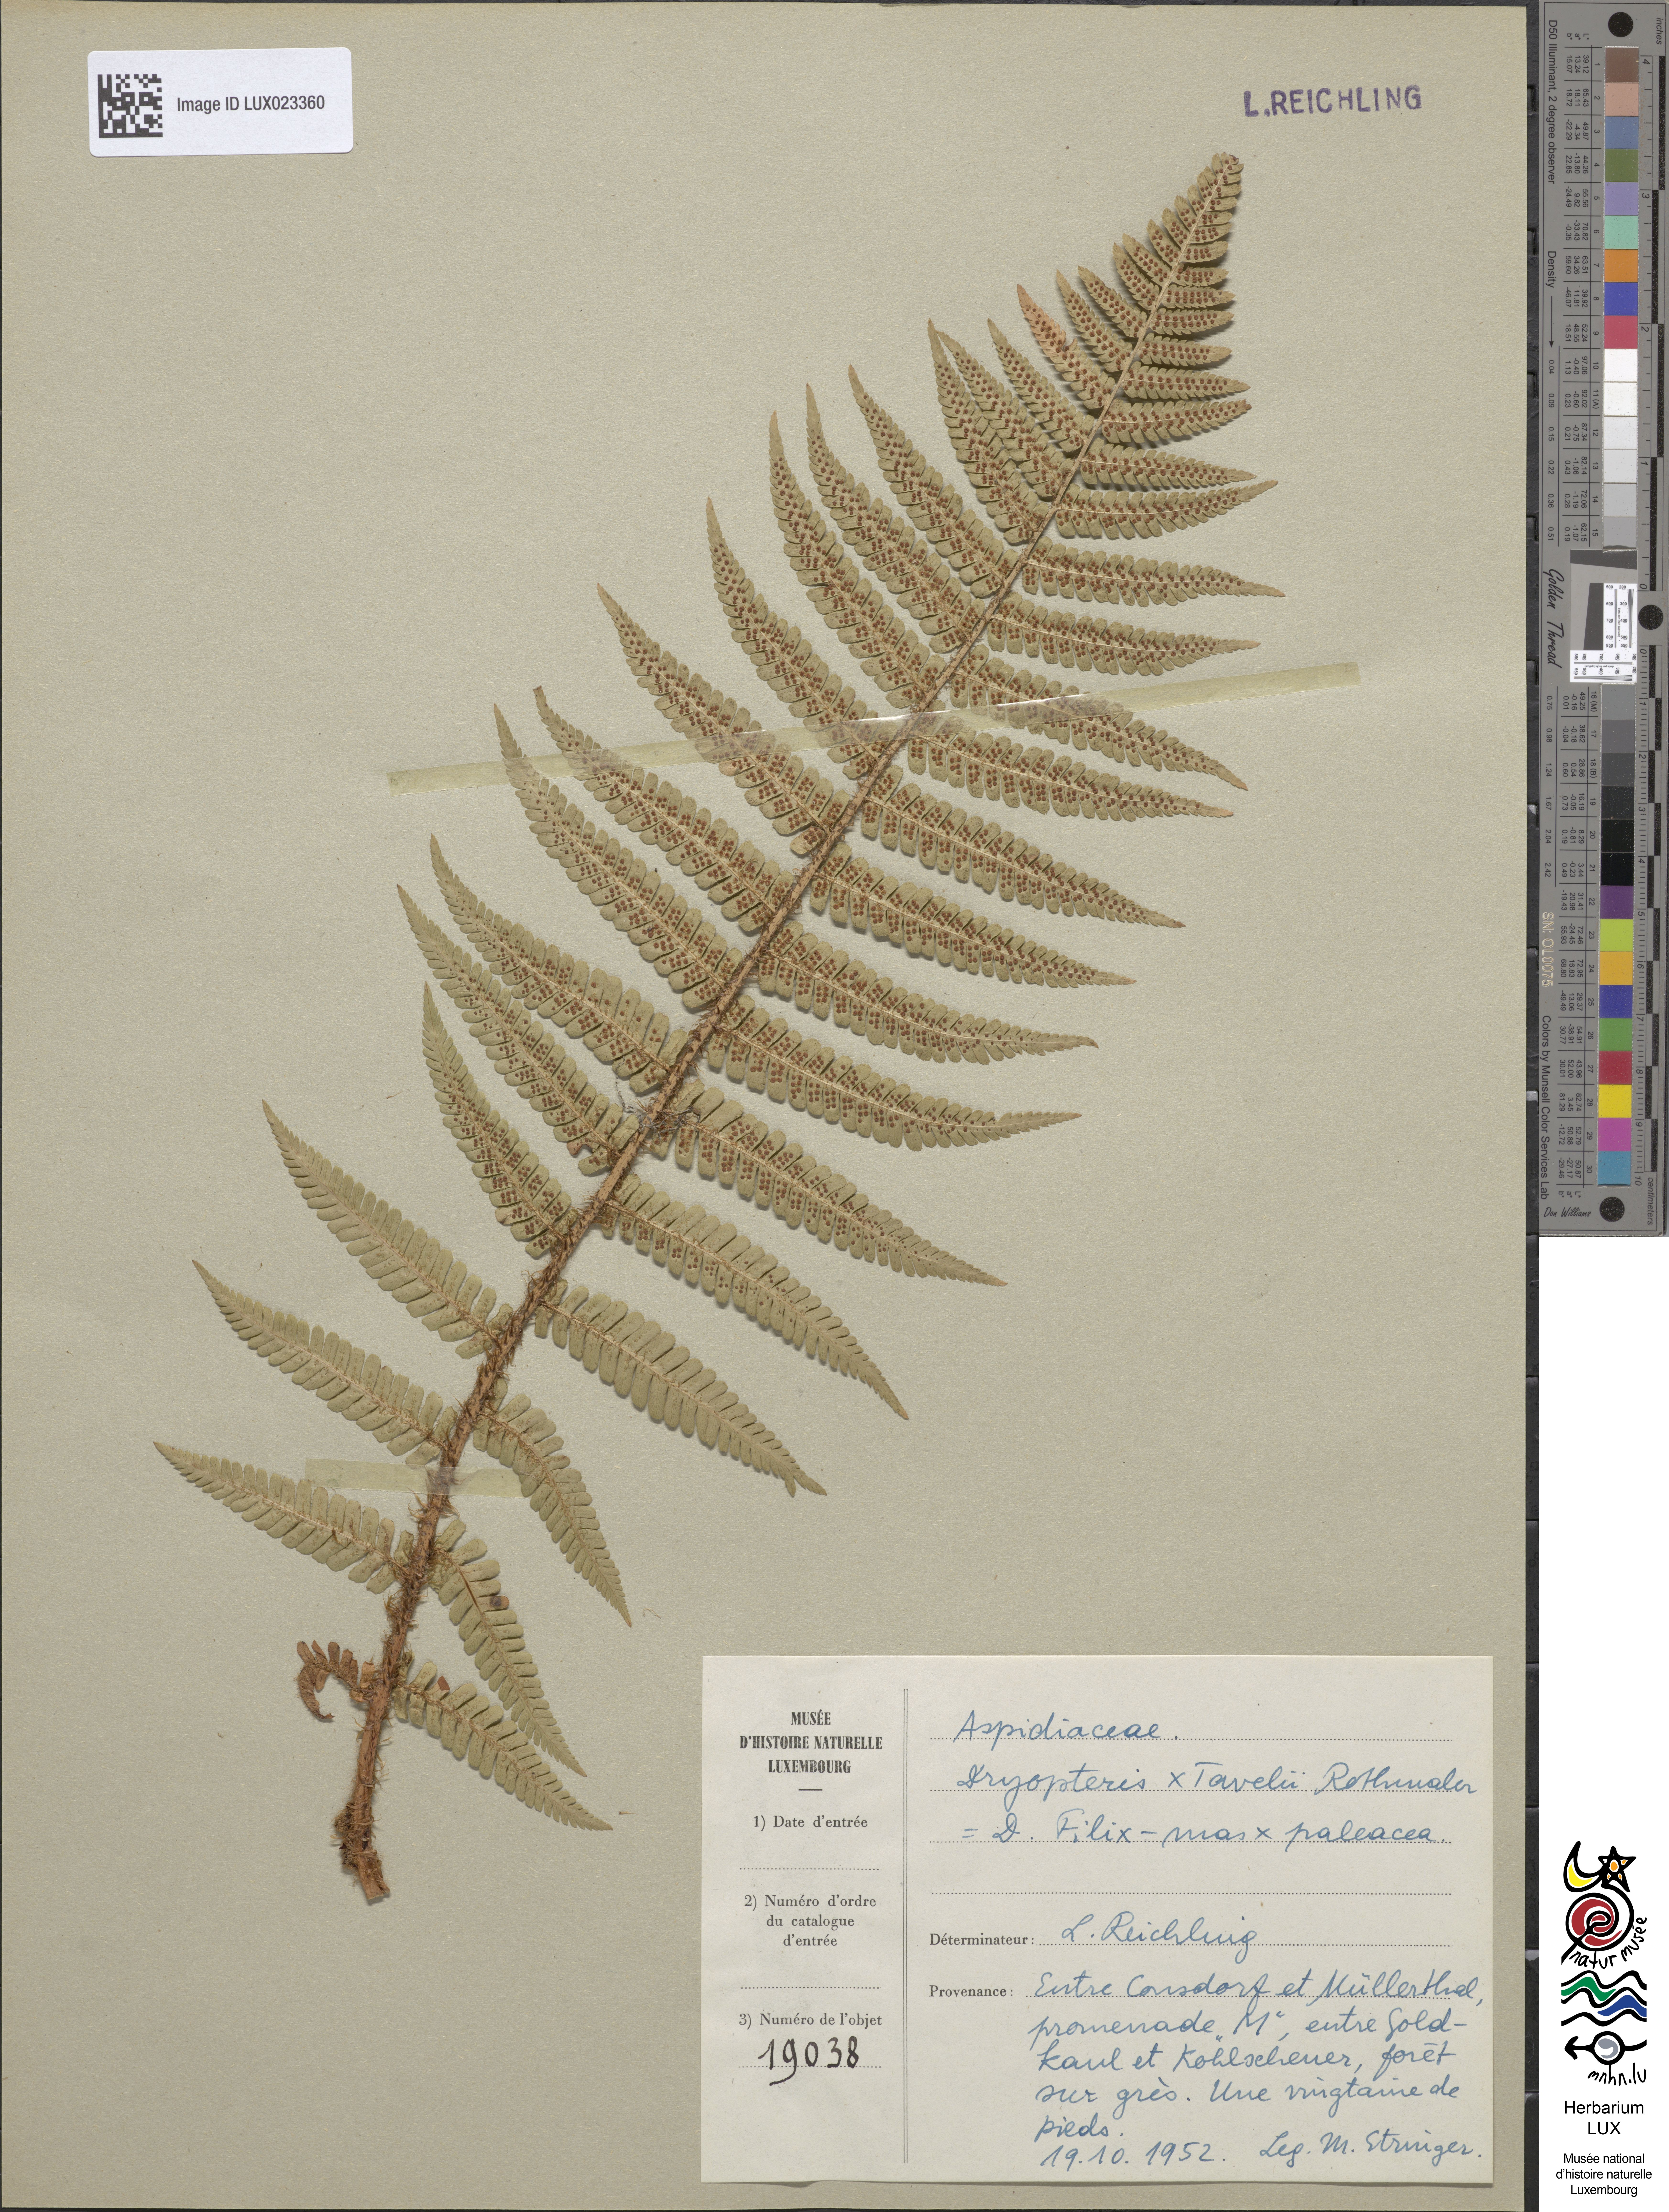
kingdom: Plantae
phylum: Tracheophyta
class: Polypodiopsida
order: Polypodiales
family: Dryopteridaceae
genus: Dryopteris
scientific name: Dryopteris borreri
